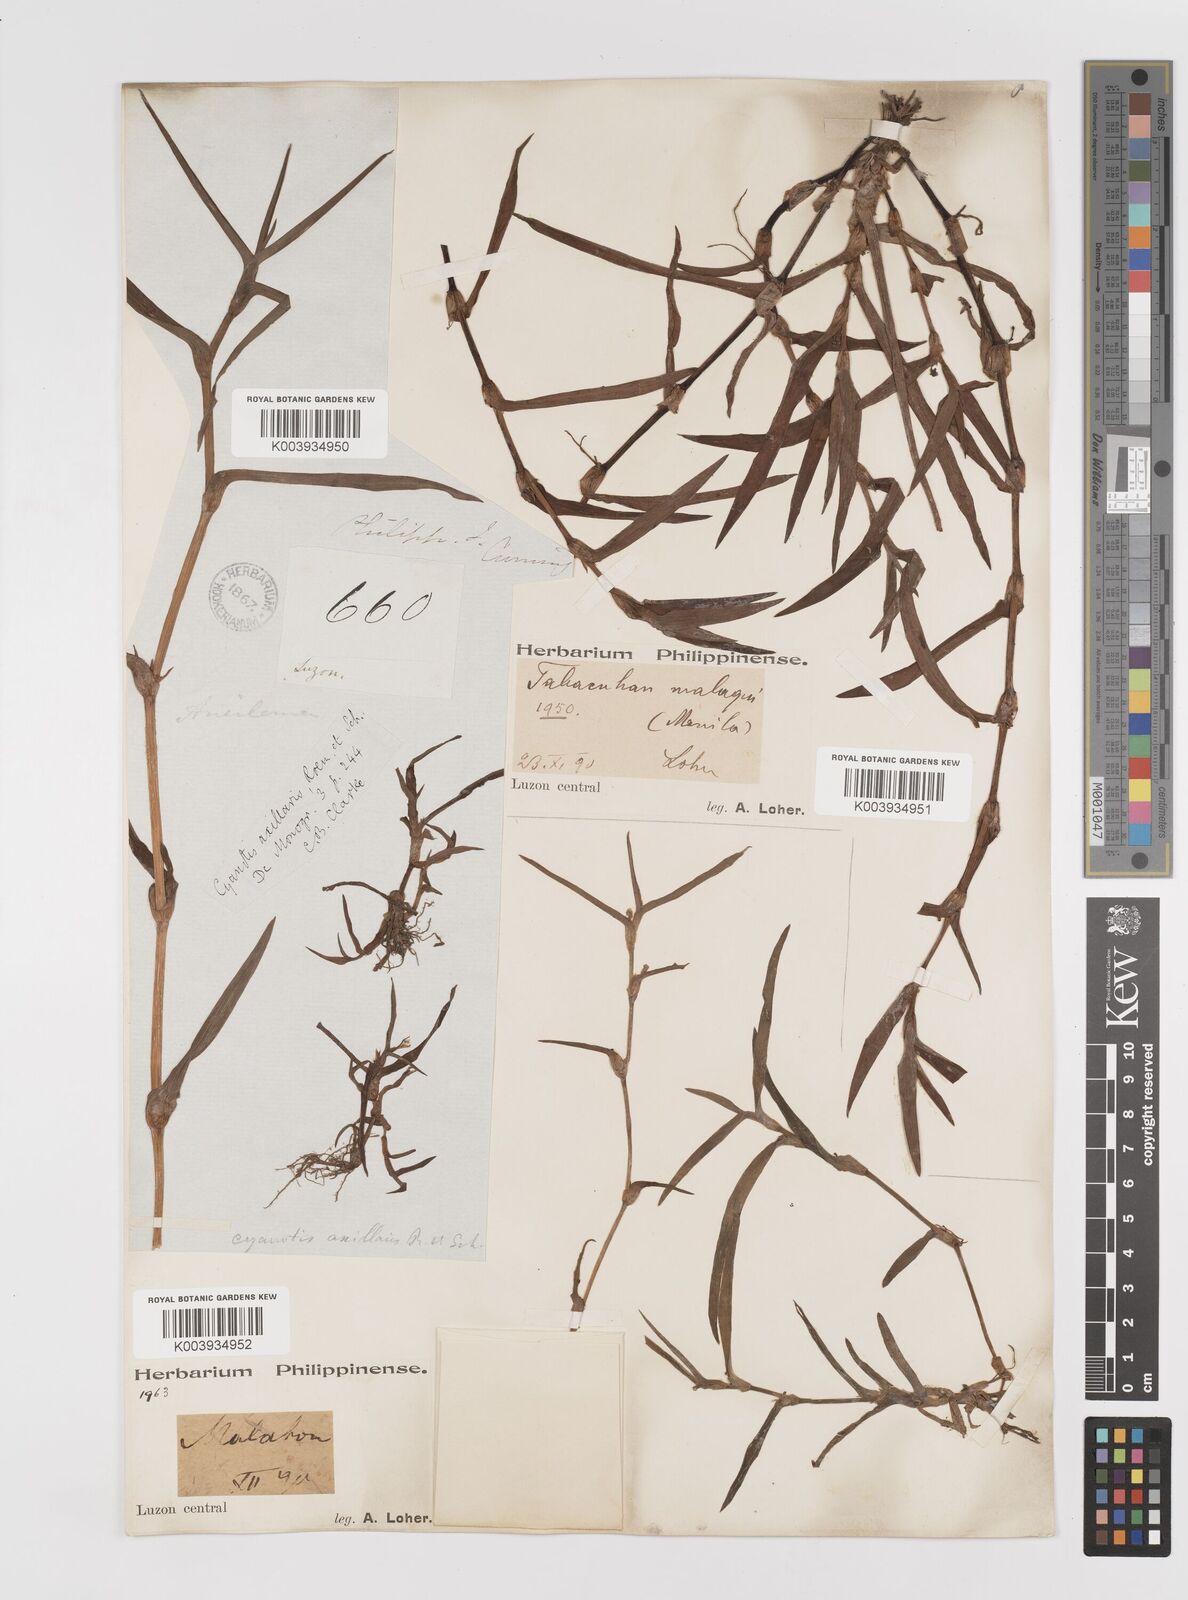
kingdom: Plantae
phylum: Tracheophyta
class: Liliopsida
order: Commelinales
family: Commelinaceae
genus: Cyanotis
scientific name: Cyanotis axillaris
